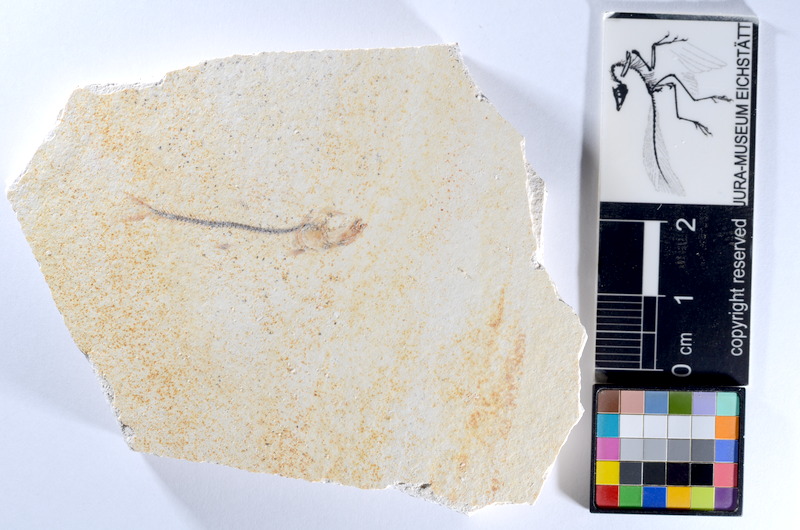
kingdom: Animalia
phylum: Chordata
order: Salmoniformes
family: Orthogonikleithridae
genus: Orthogonikleithrus
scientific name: Orthogonikleithrus hoelli
